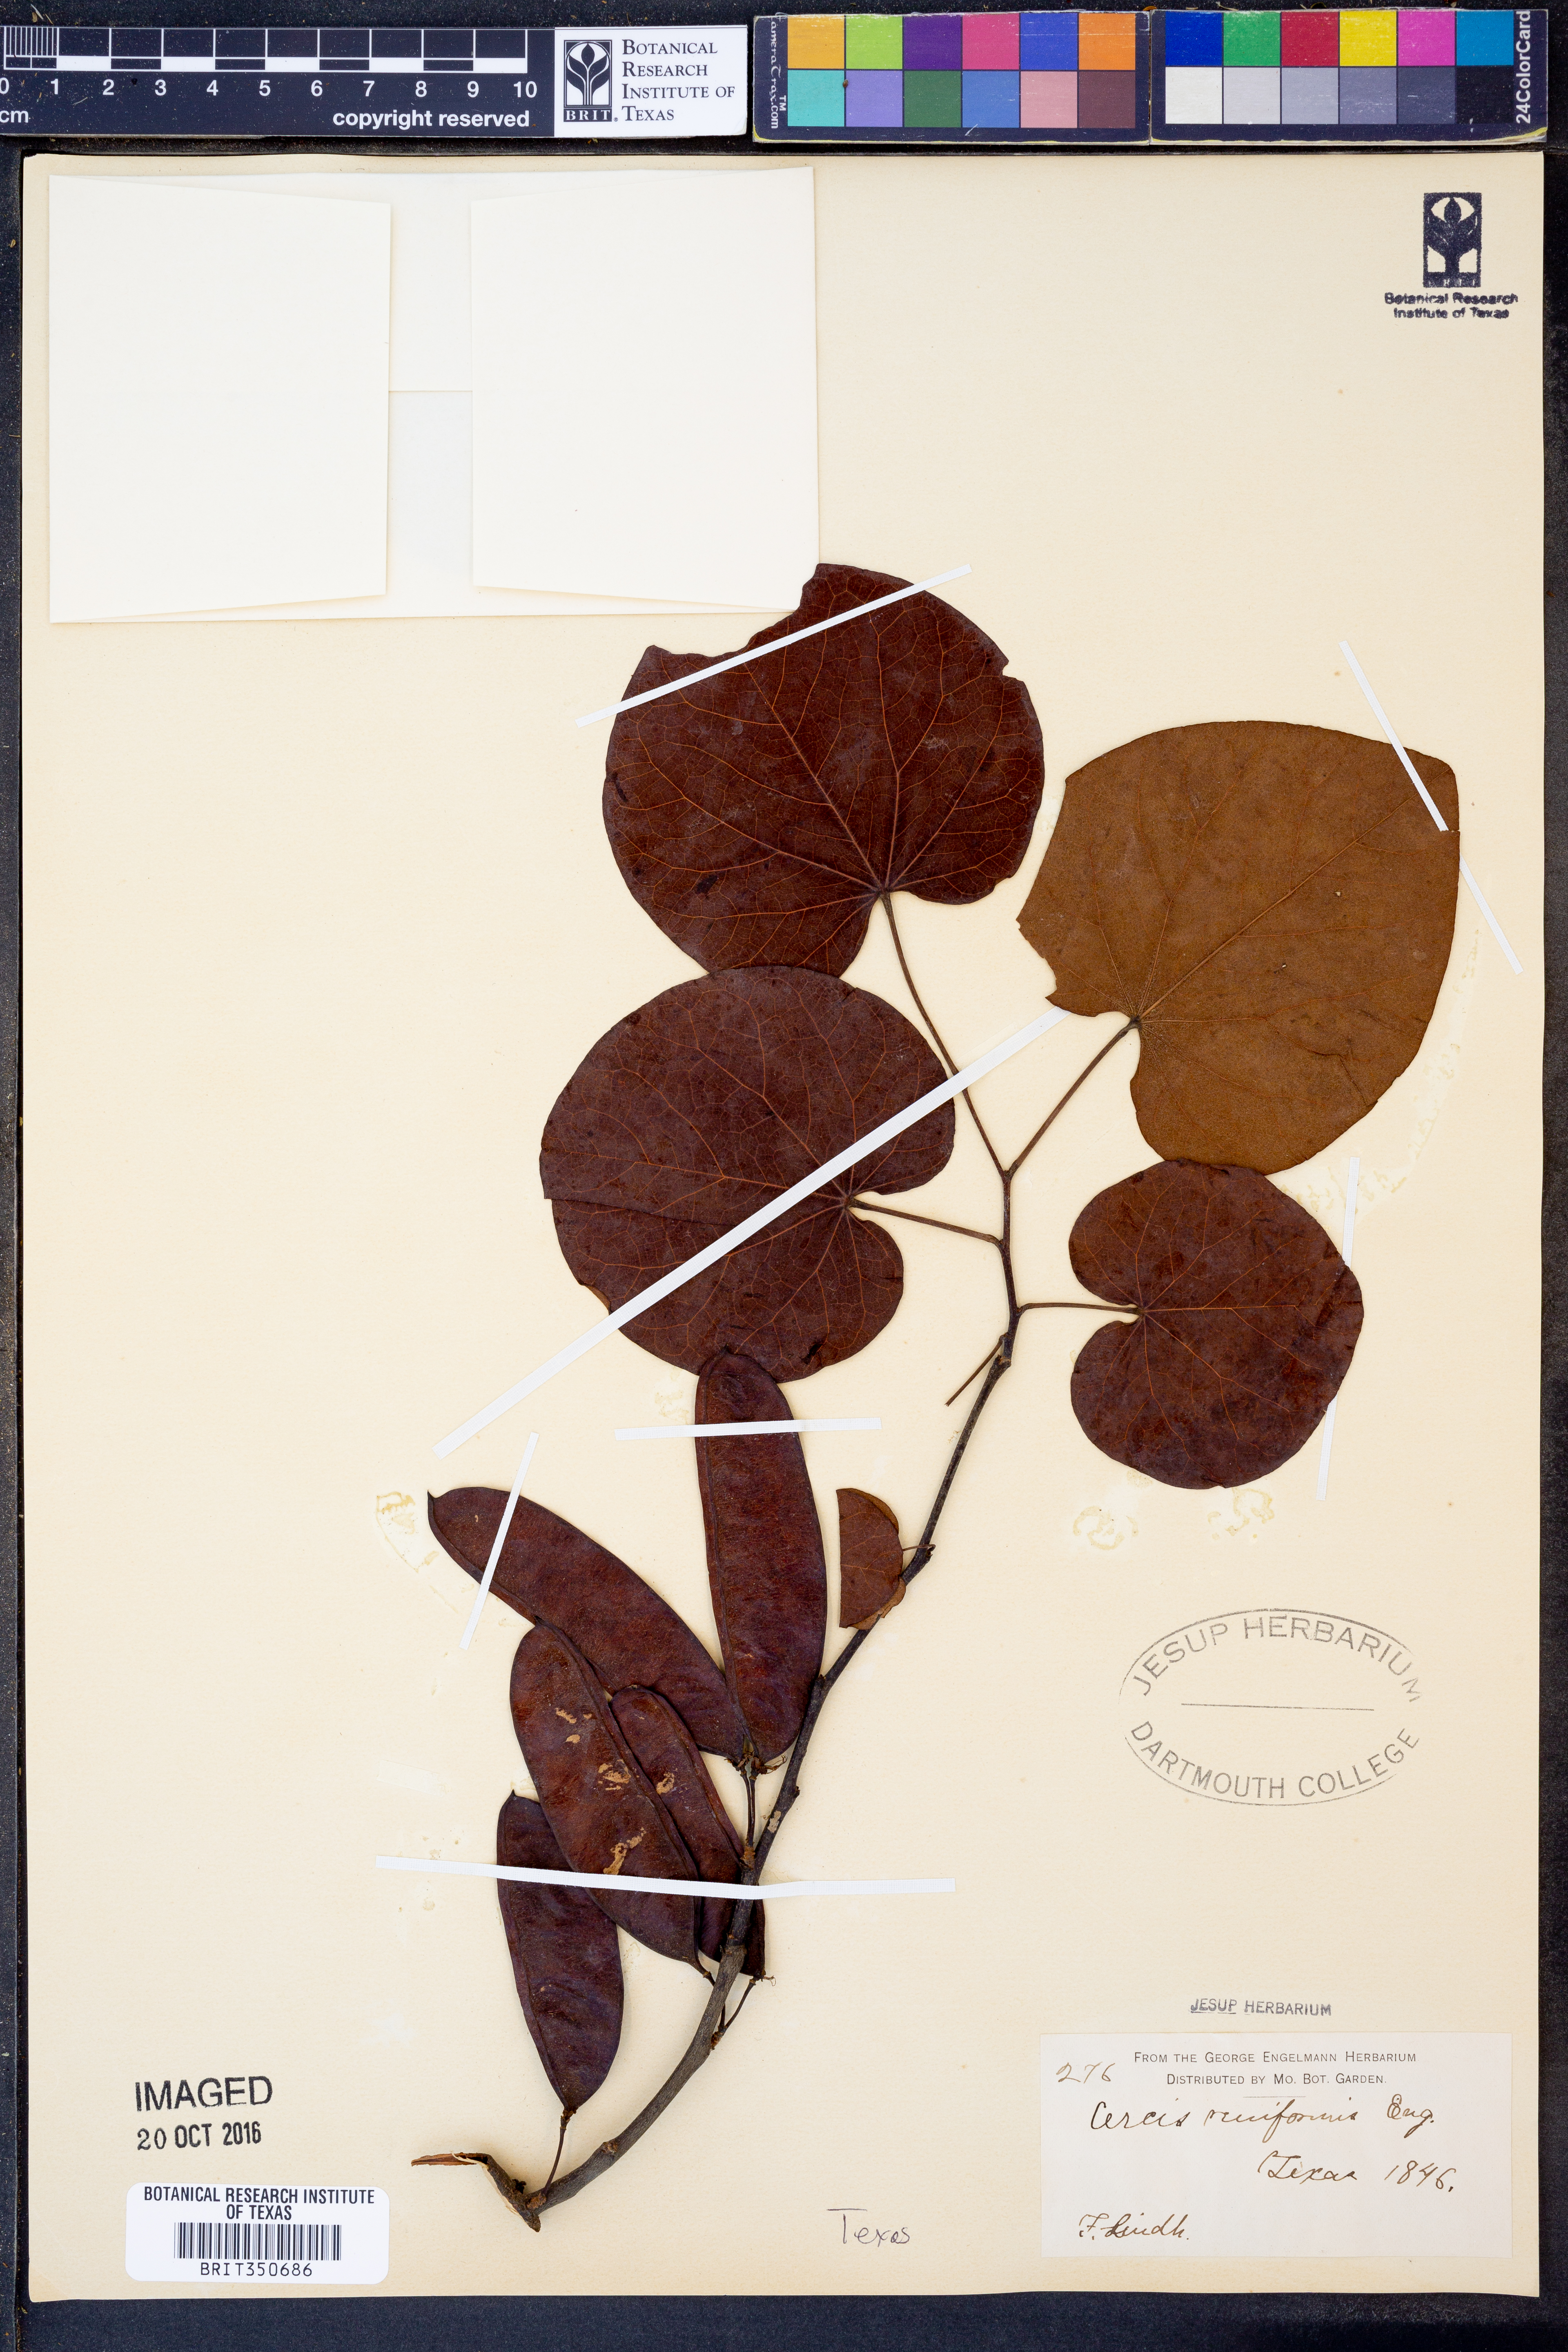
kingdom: Plantae
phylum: Tracheophyta
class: Magnoliopsida
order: Fabales
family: Fabaceae
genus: Cercis
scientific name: Cercis canadensis
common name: Eastern redbud
